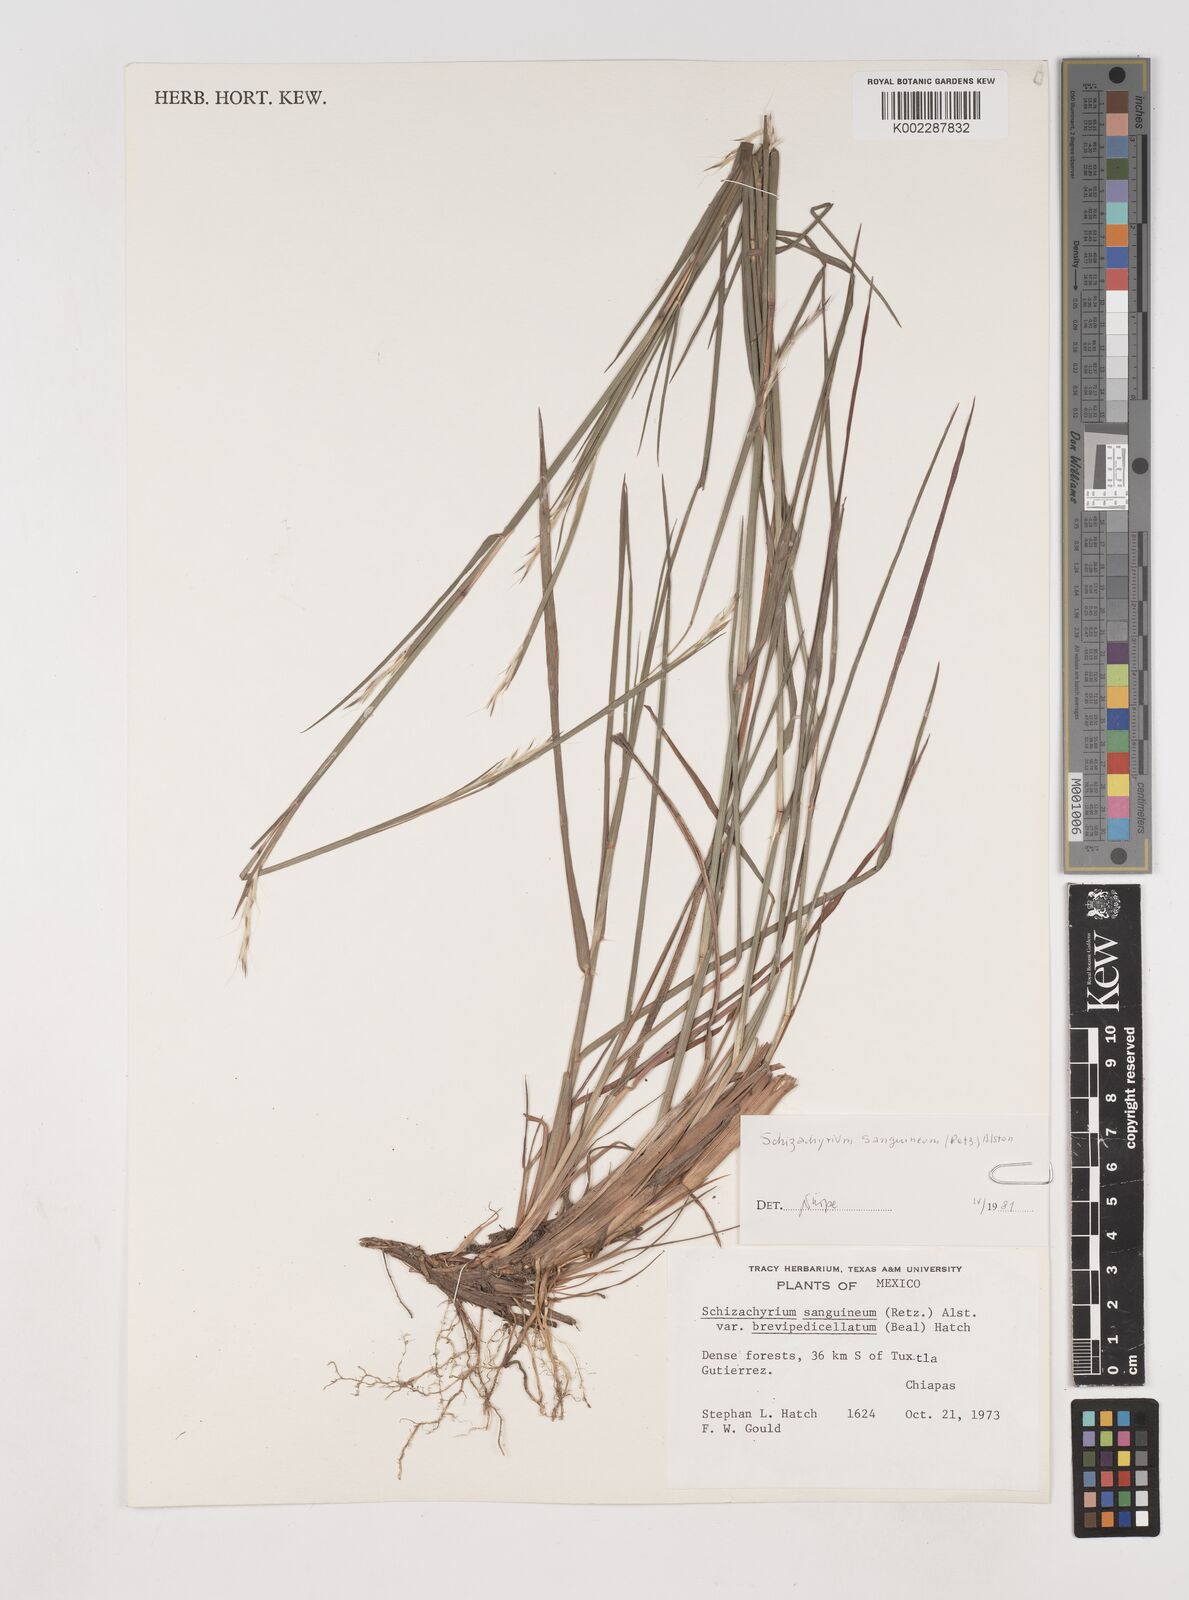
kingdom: Plantae
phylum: Tracheophyta
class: Liliopsida
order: Poales
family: Poaceae
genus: Schizachyrium
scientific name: Schizachyrium sanguineum
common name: Crimson bluestem
